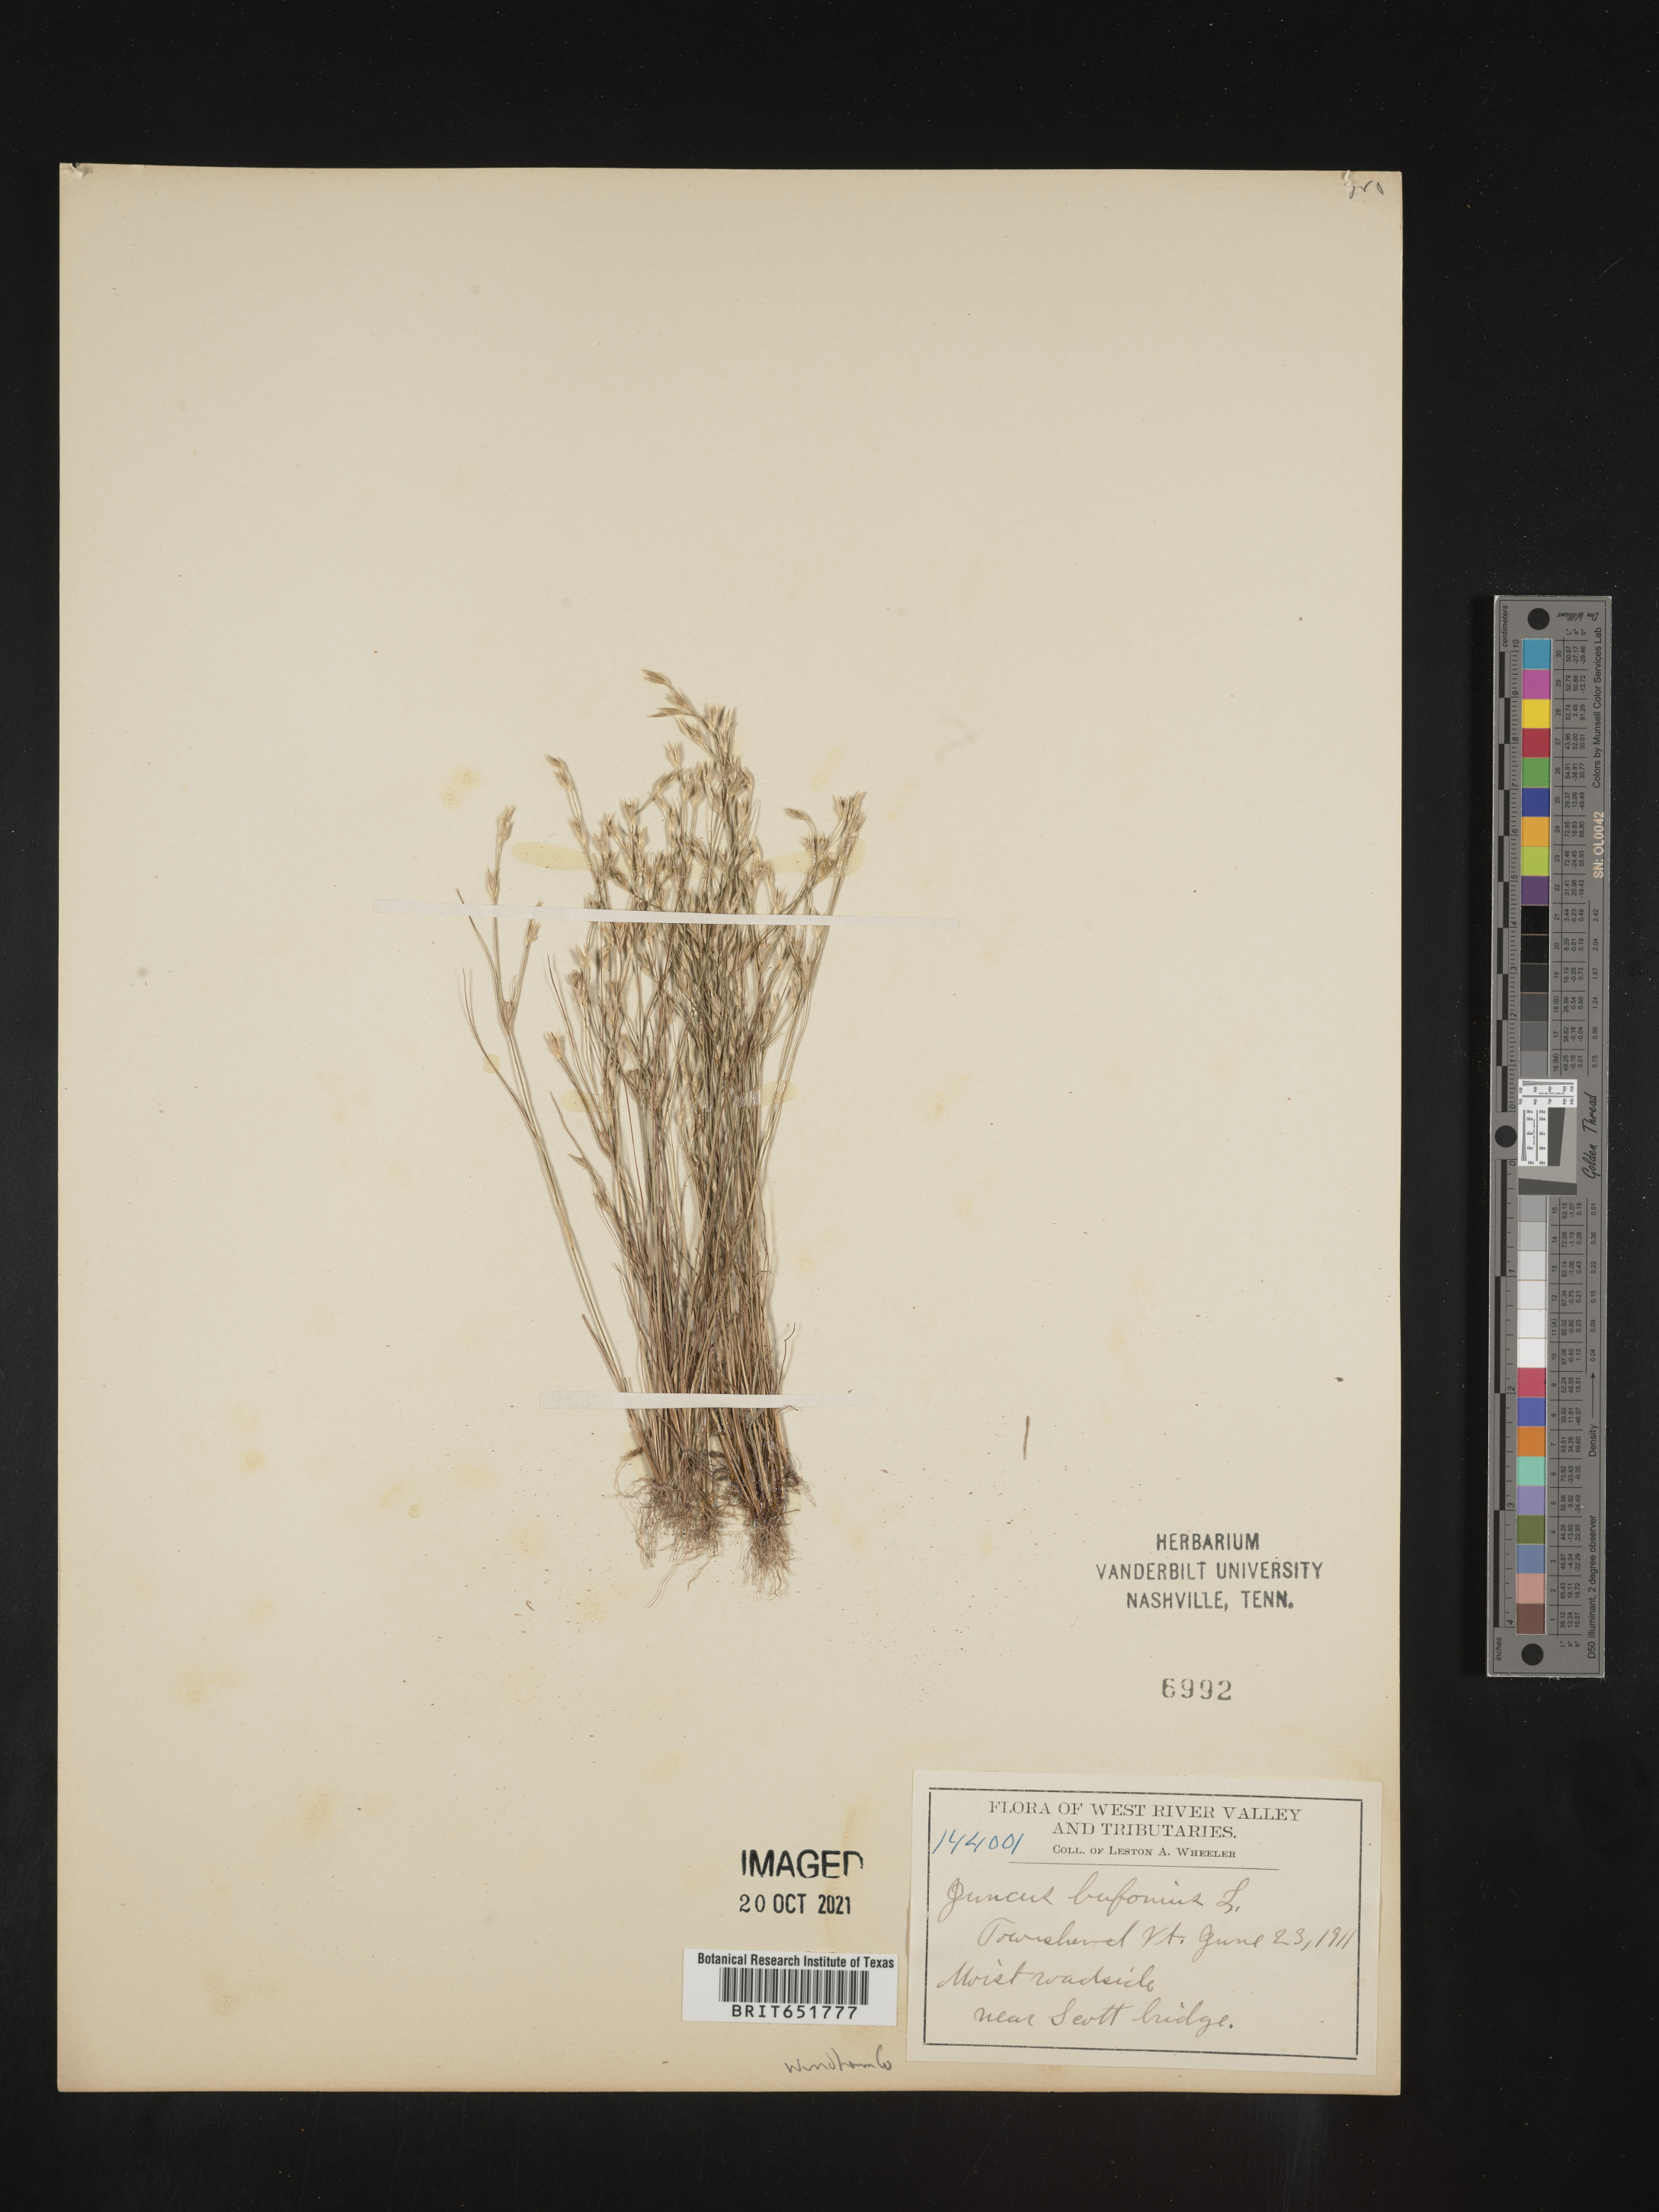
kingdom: Plantae
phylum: Tracheophyta
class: Liliopsida
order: Poales
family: Juncaceae
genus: Juncus
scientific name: Juncus bufonius
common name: Toad rush
